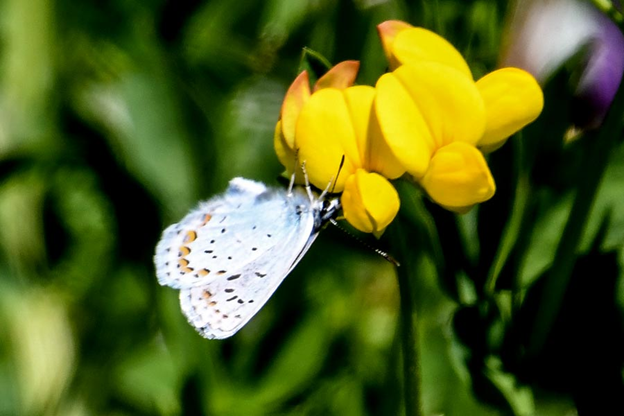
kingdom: Animalia
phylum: Arthropoda
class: Insecta
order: Lepidoptera
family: Lycaenidae
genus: Lycaeides
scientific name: Lycaeides anna
